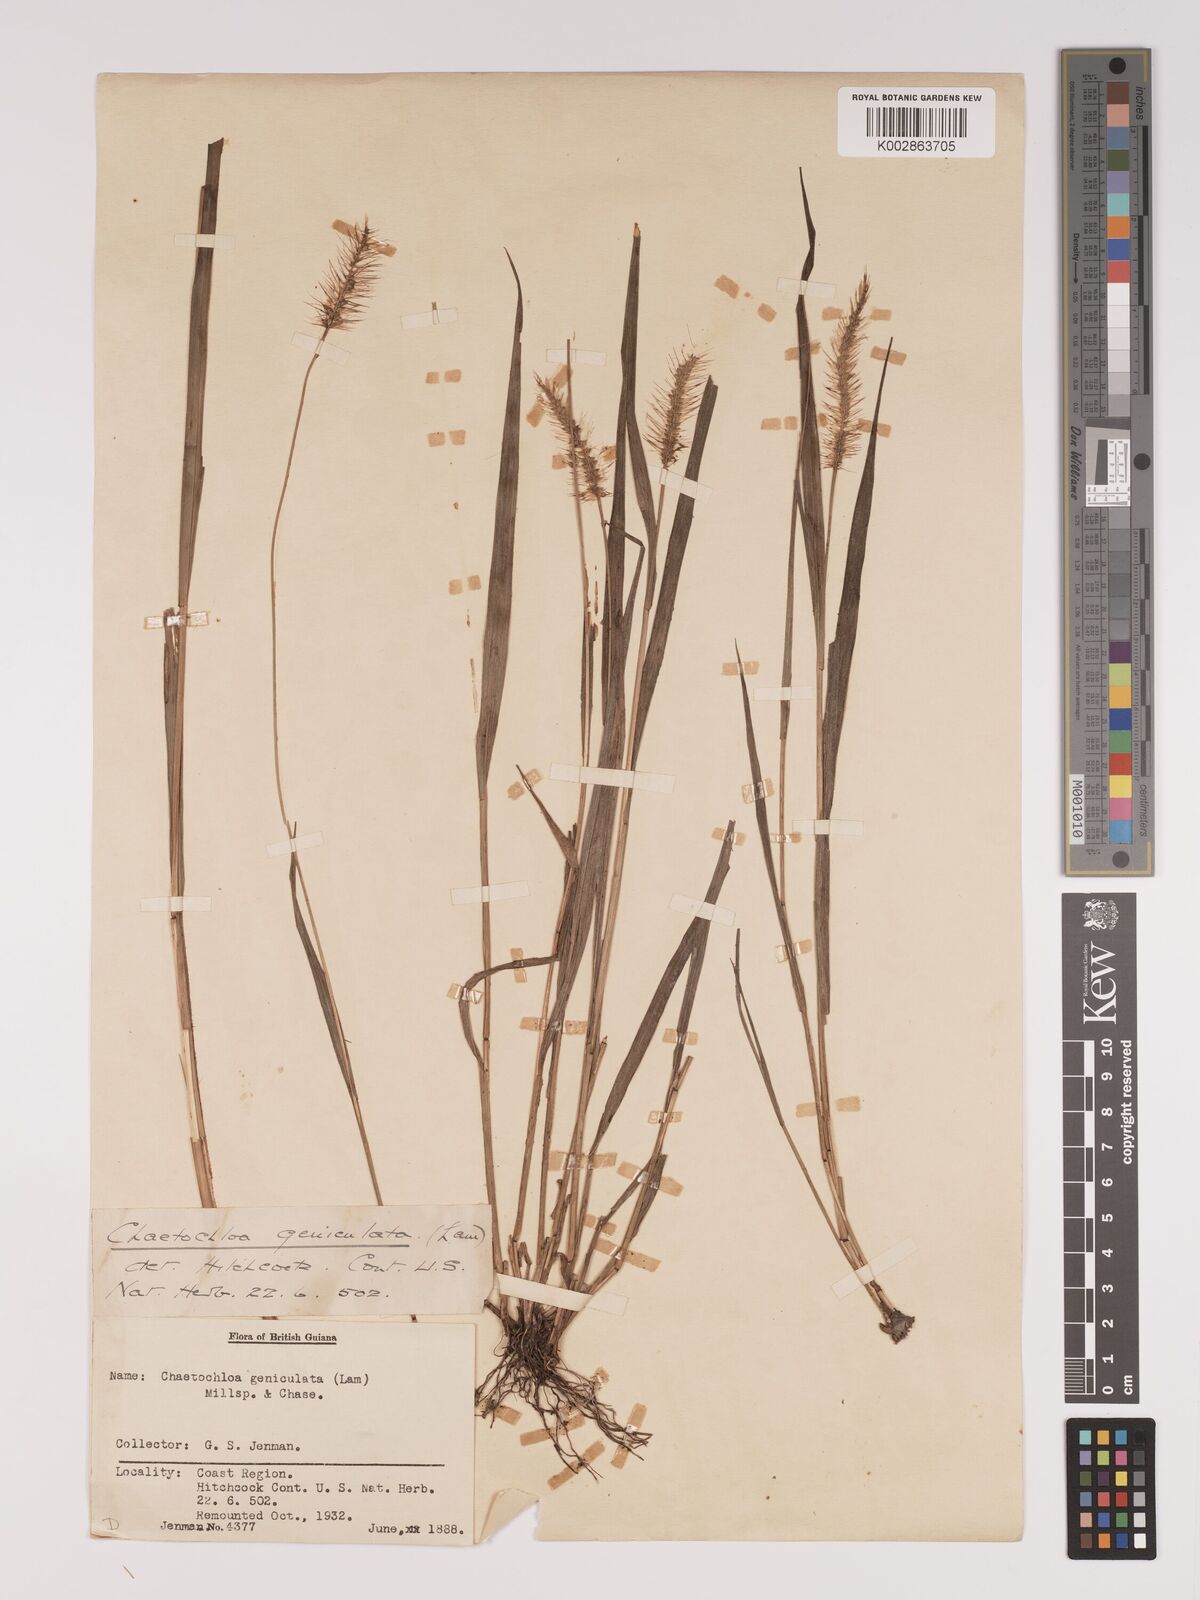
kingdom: Plantae
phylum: Tracheophyta
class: Liliopsida
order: Poales
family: Poaceae
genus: Setaria
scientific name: Setaria parviflora
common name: Knotroot bristle-grass
